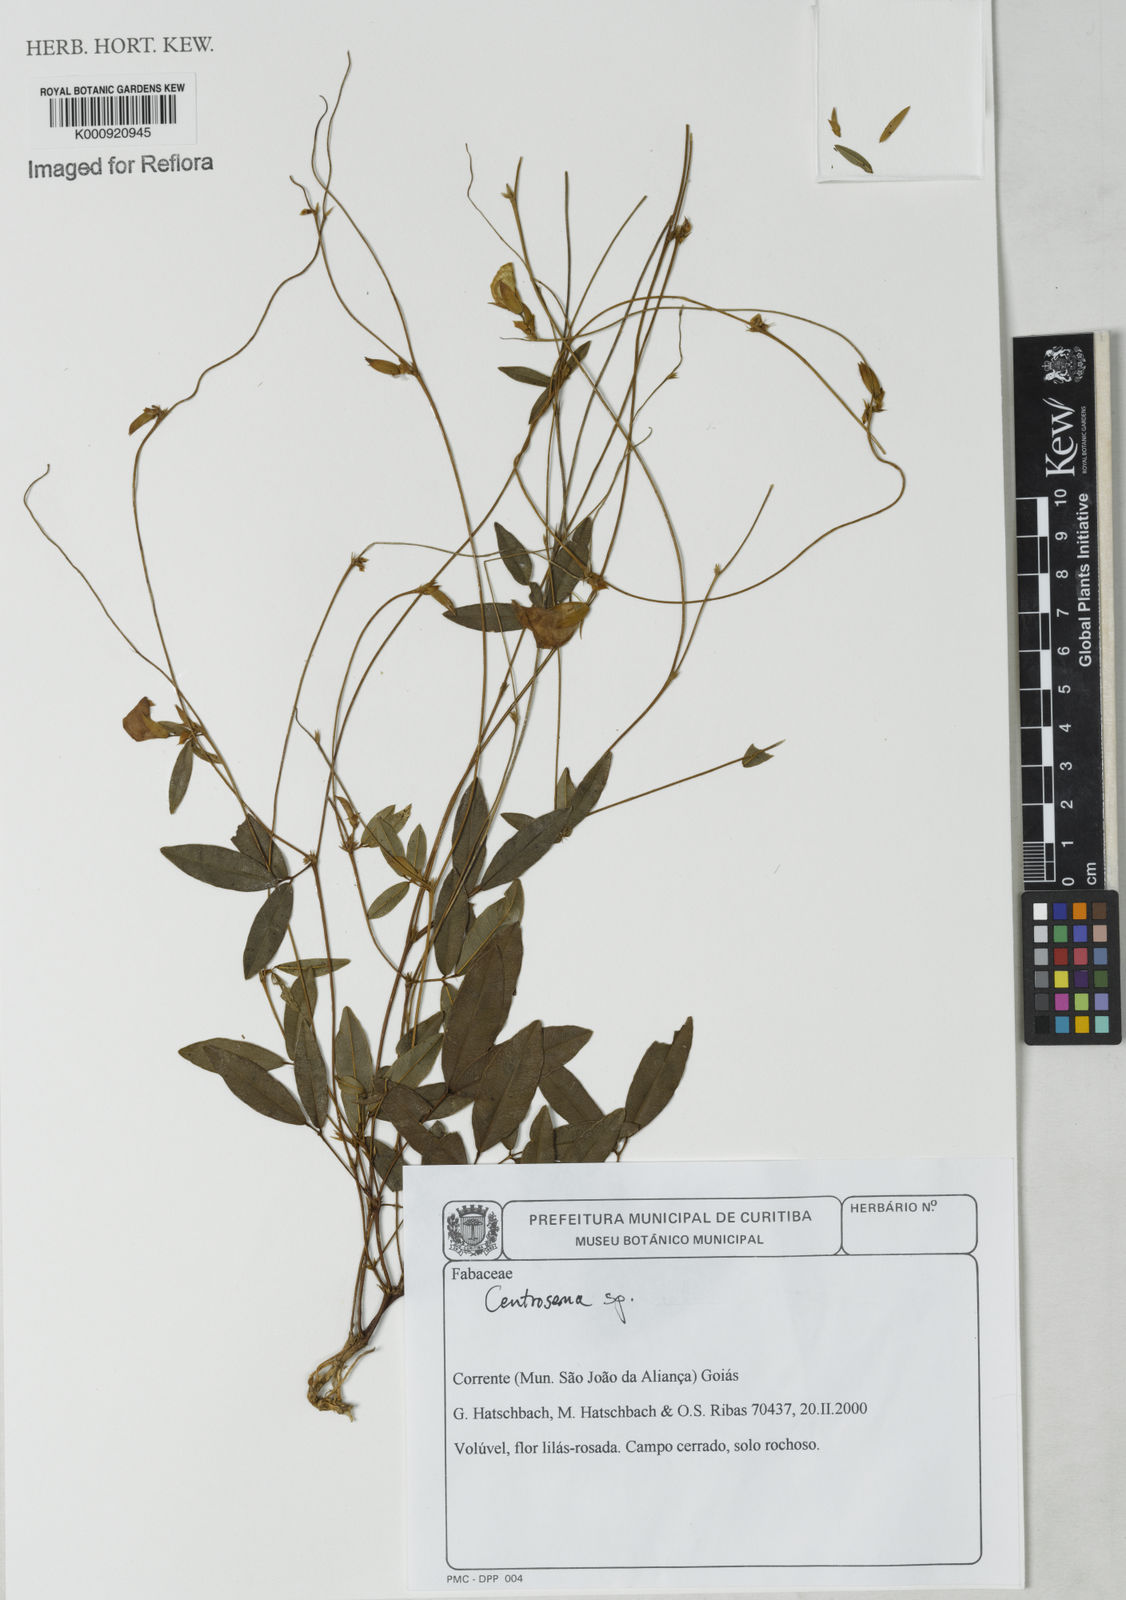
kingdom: Plantae
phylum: Tracheophyta
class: Magnoliopsida
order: Fabales
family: Fabaceae
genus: Centrosema
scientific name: Centrosema
